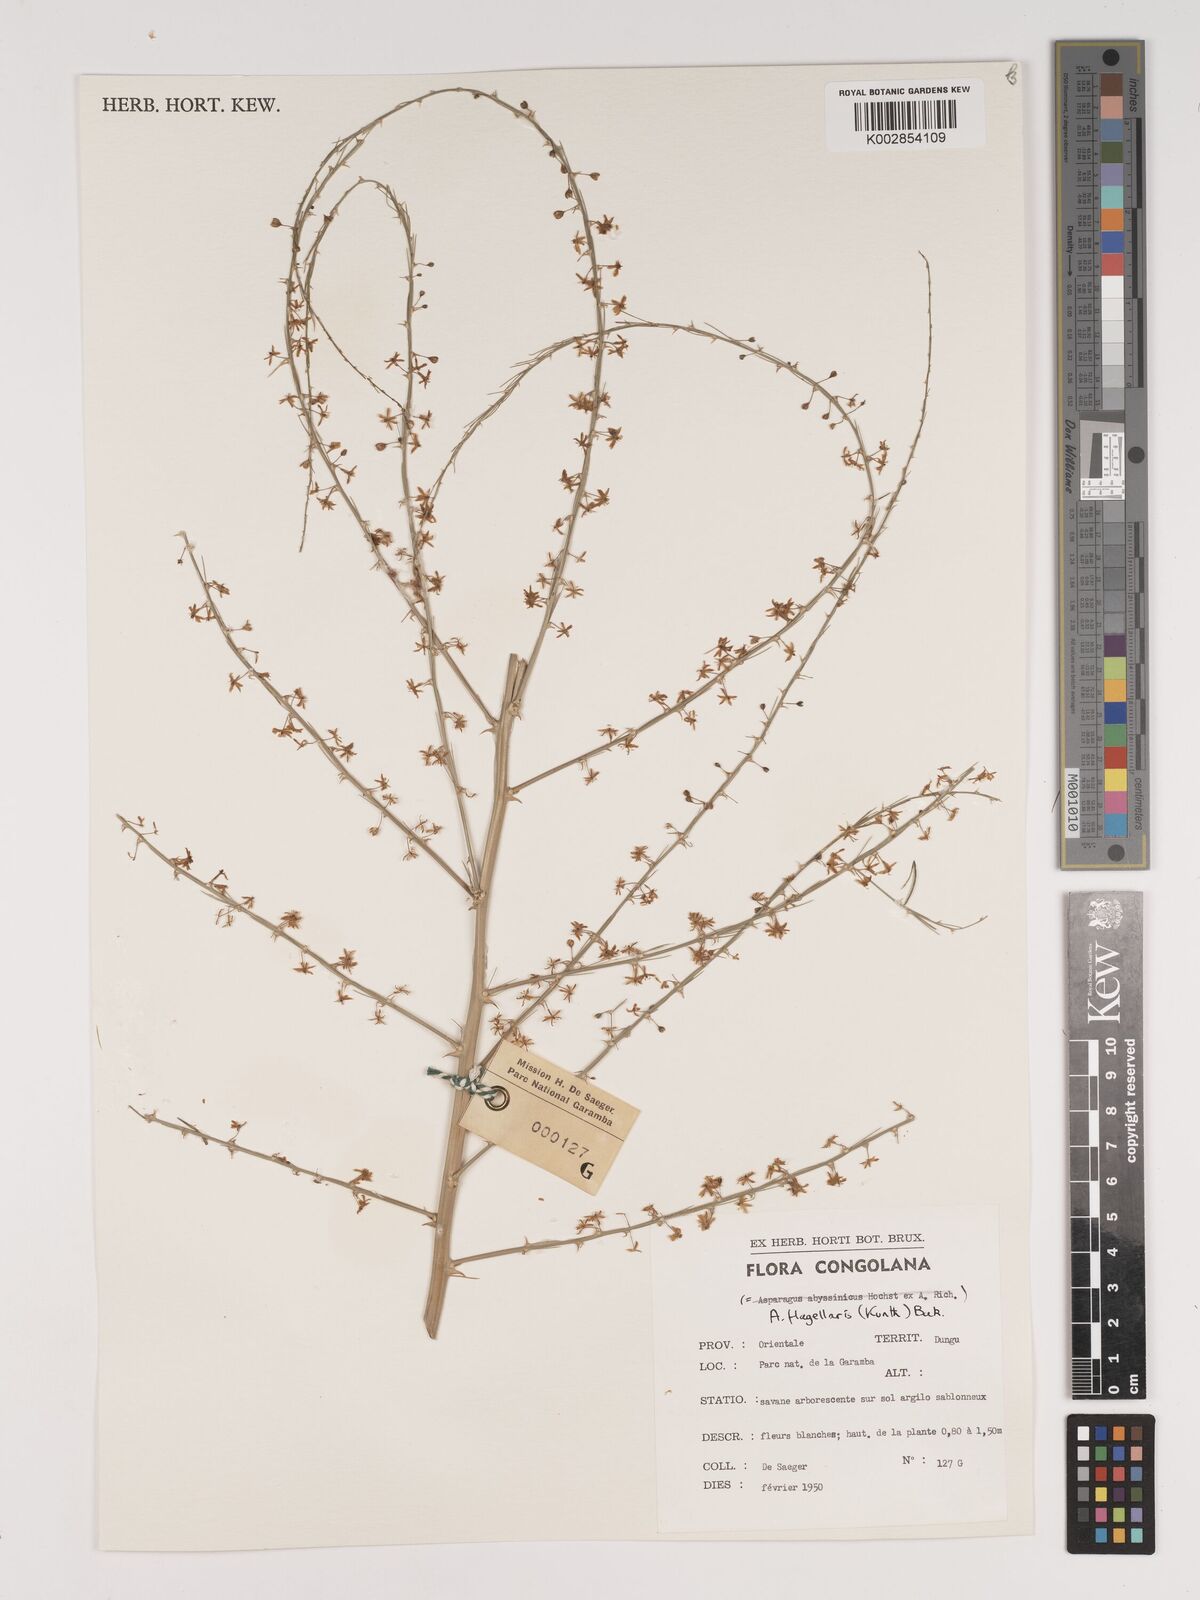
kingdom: Plantae
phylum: Tracheophyta
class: Liliopsida
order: Asparagales
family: Asparagaceae
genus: Asparagus
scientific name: Asparagus flagellaris
